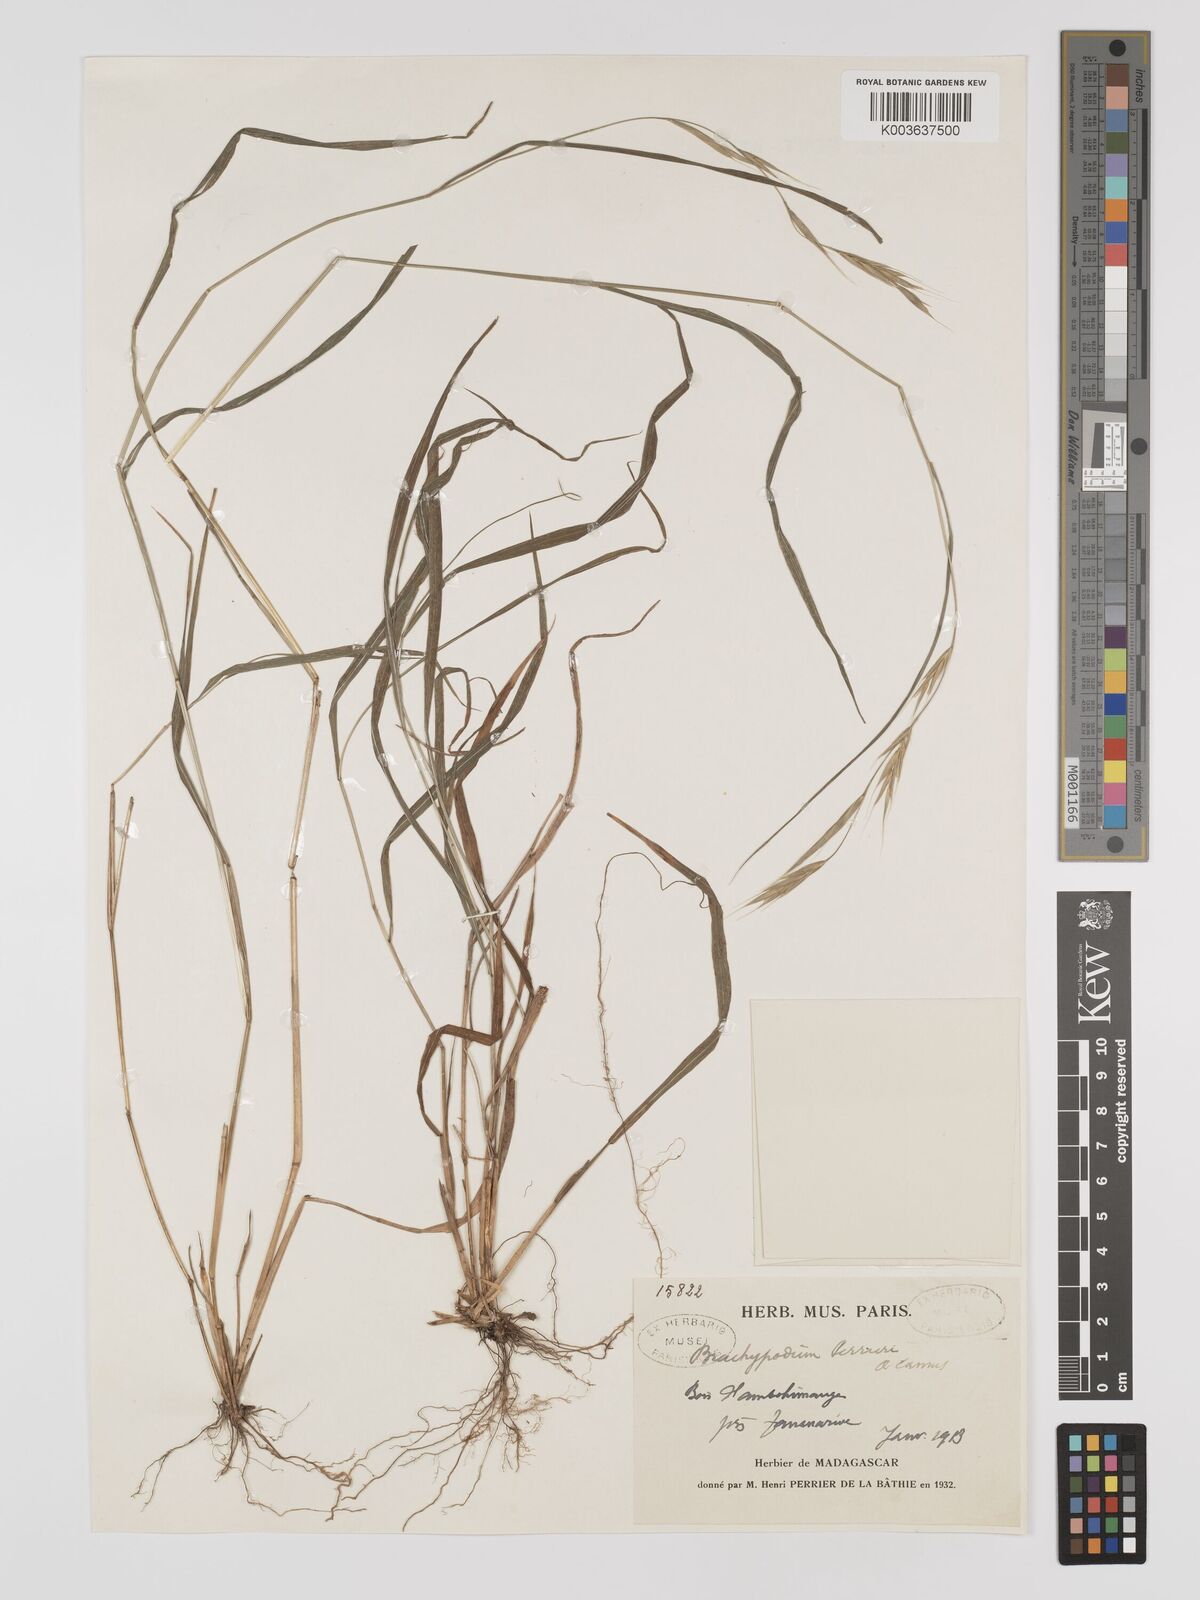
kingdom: Plantae
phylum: Tracheophyta
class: Liliopsida
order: Poales
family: Poaceae
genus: Brachypodium
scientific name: Brachypodium perrieri
